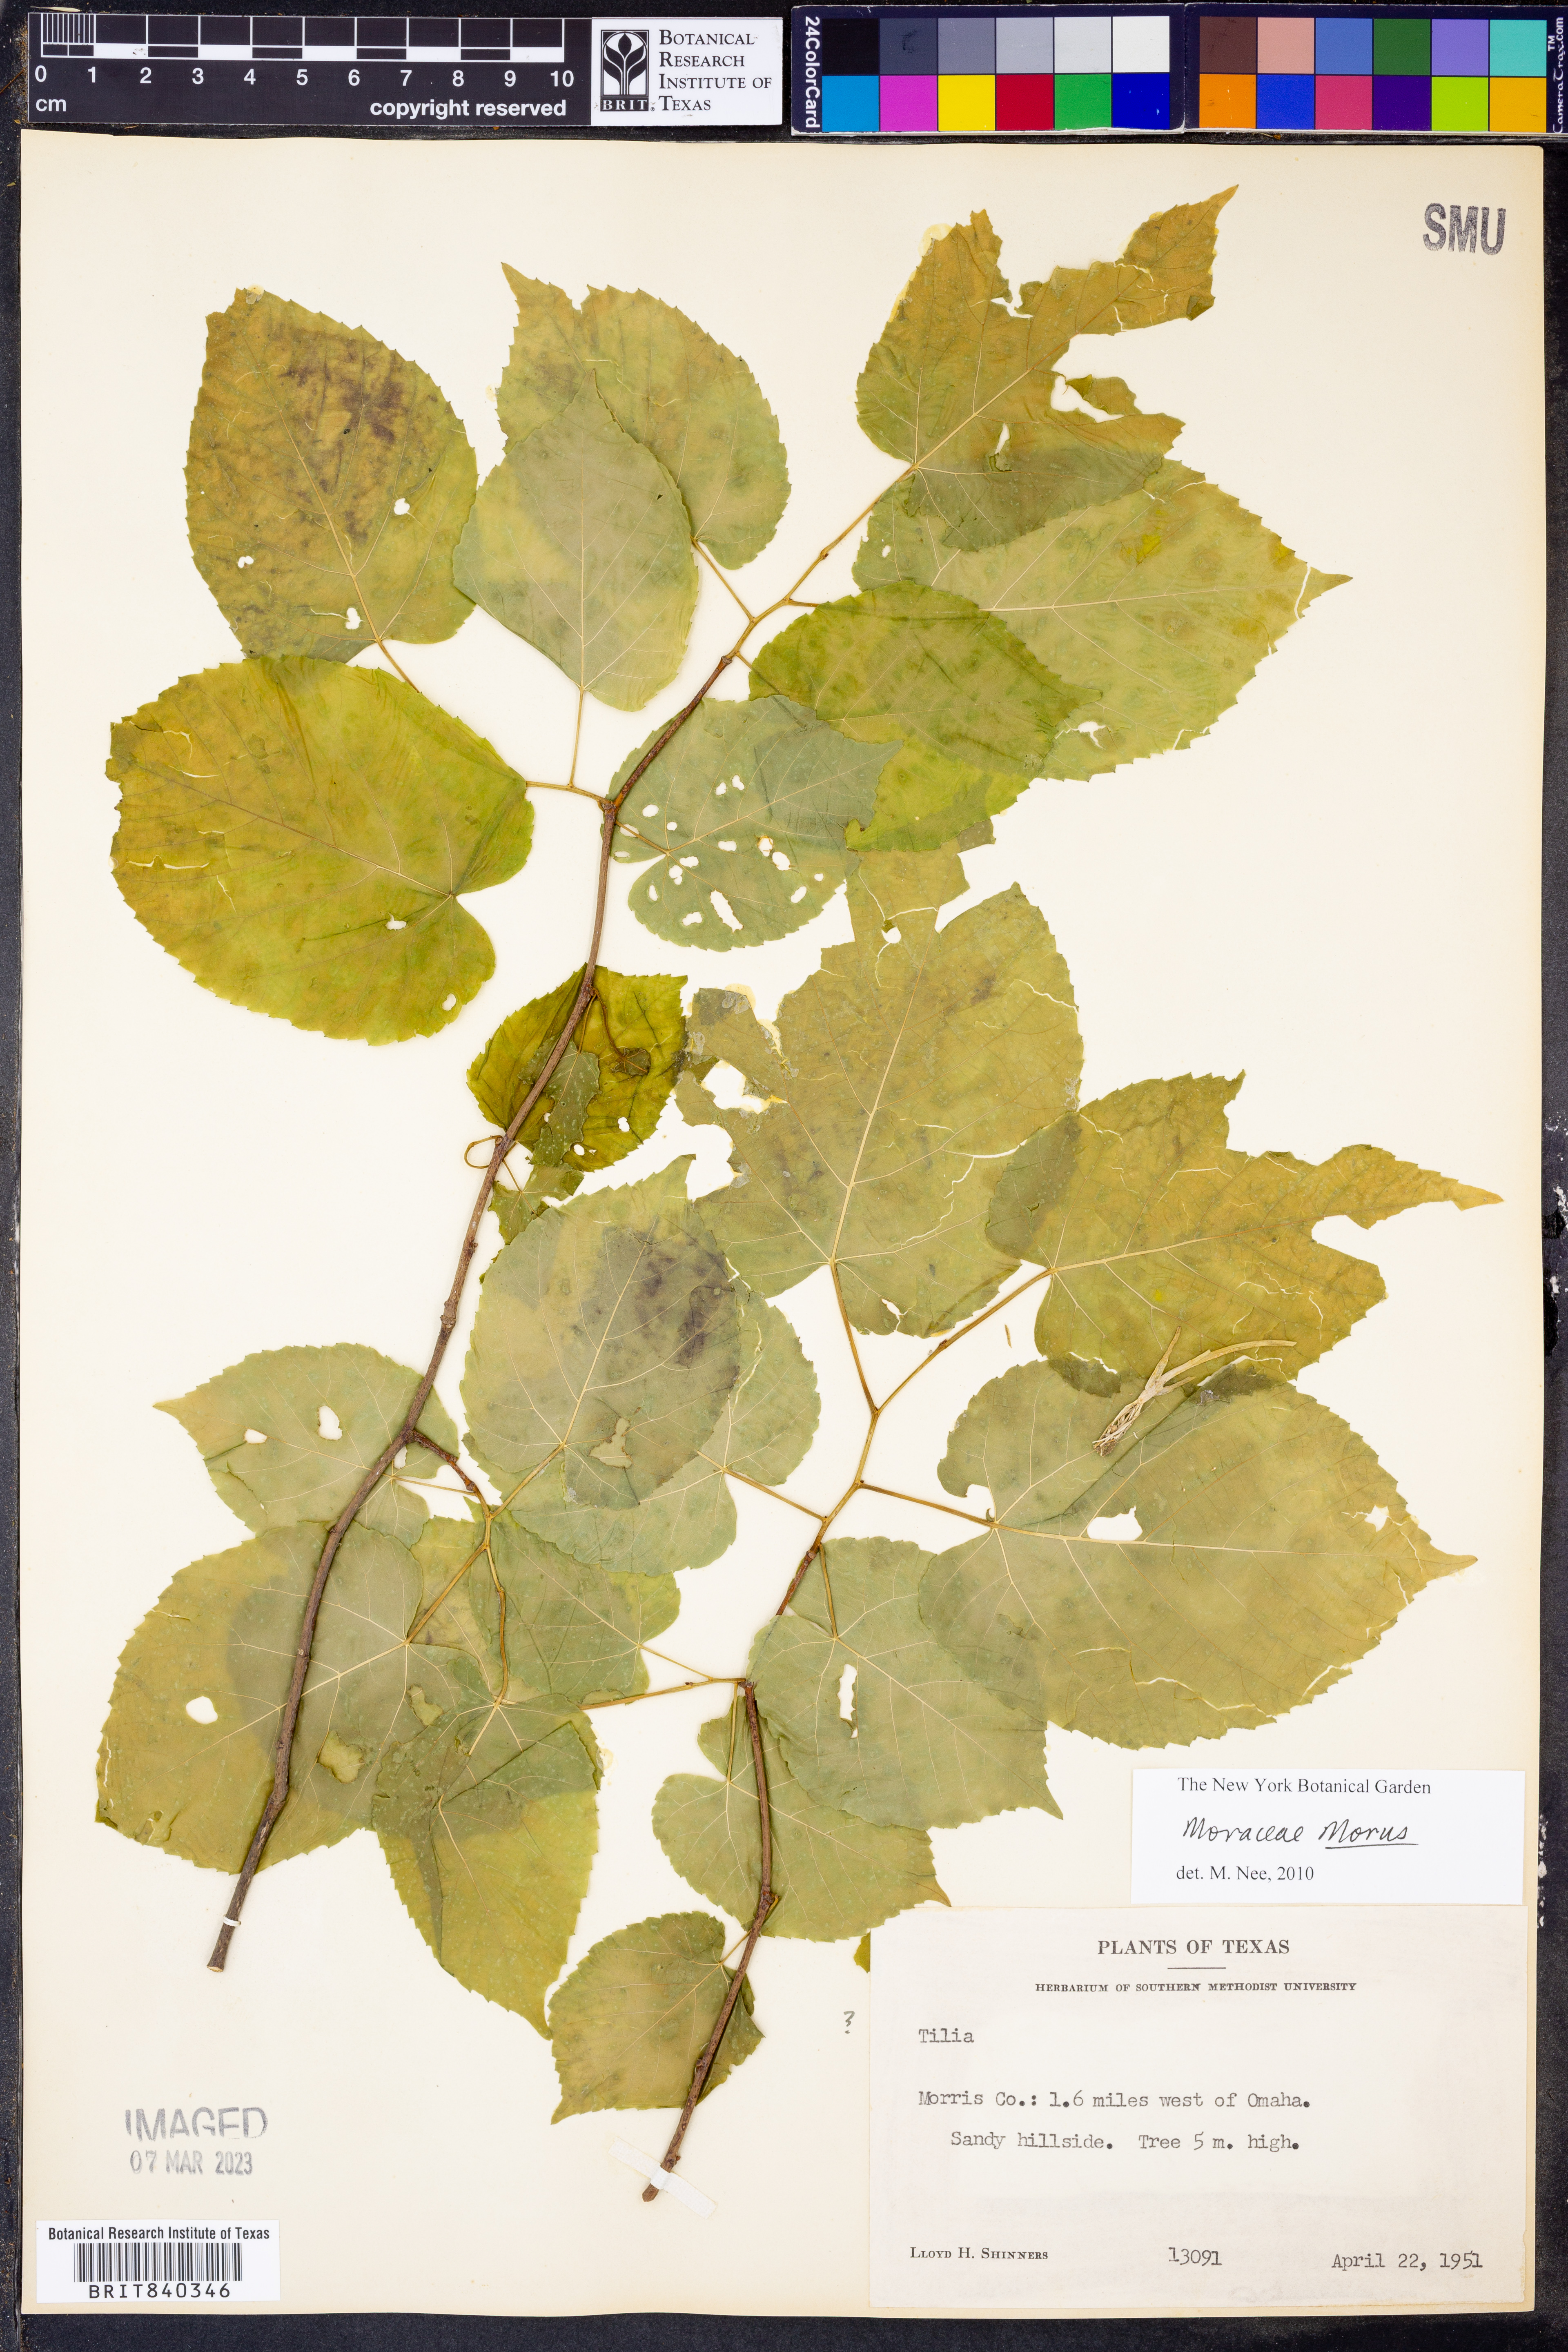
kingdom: Plantae
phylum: Tracheophyta
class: Magnoliopsida
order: Rosales
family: Moraceae
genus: Morus
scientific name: Morus
